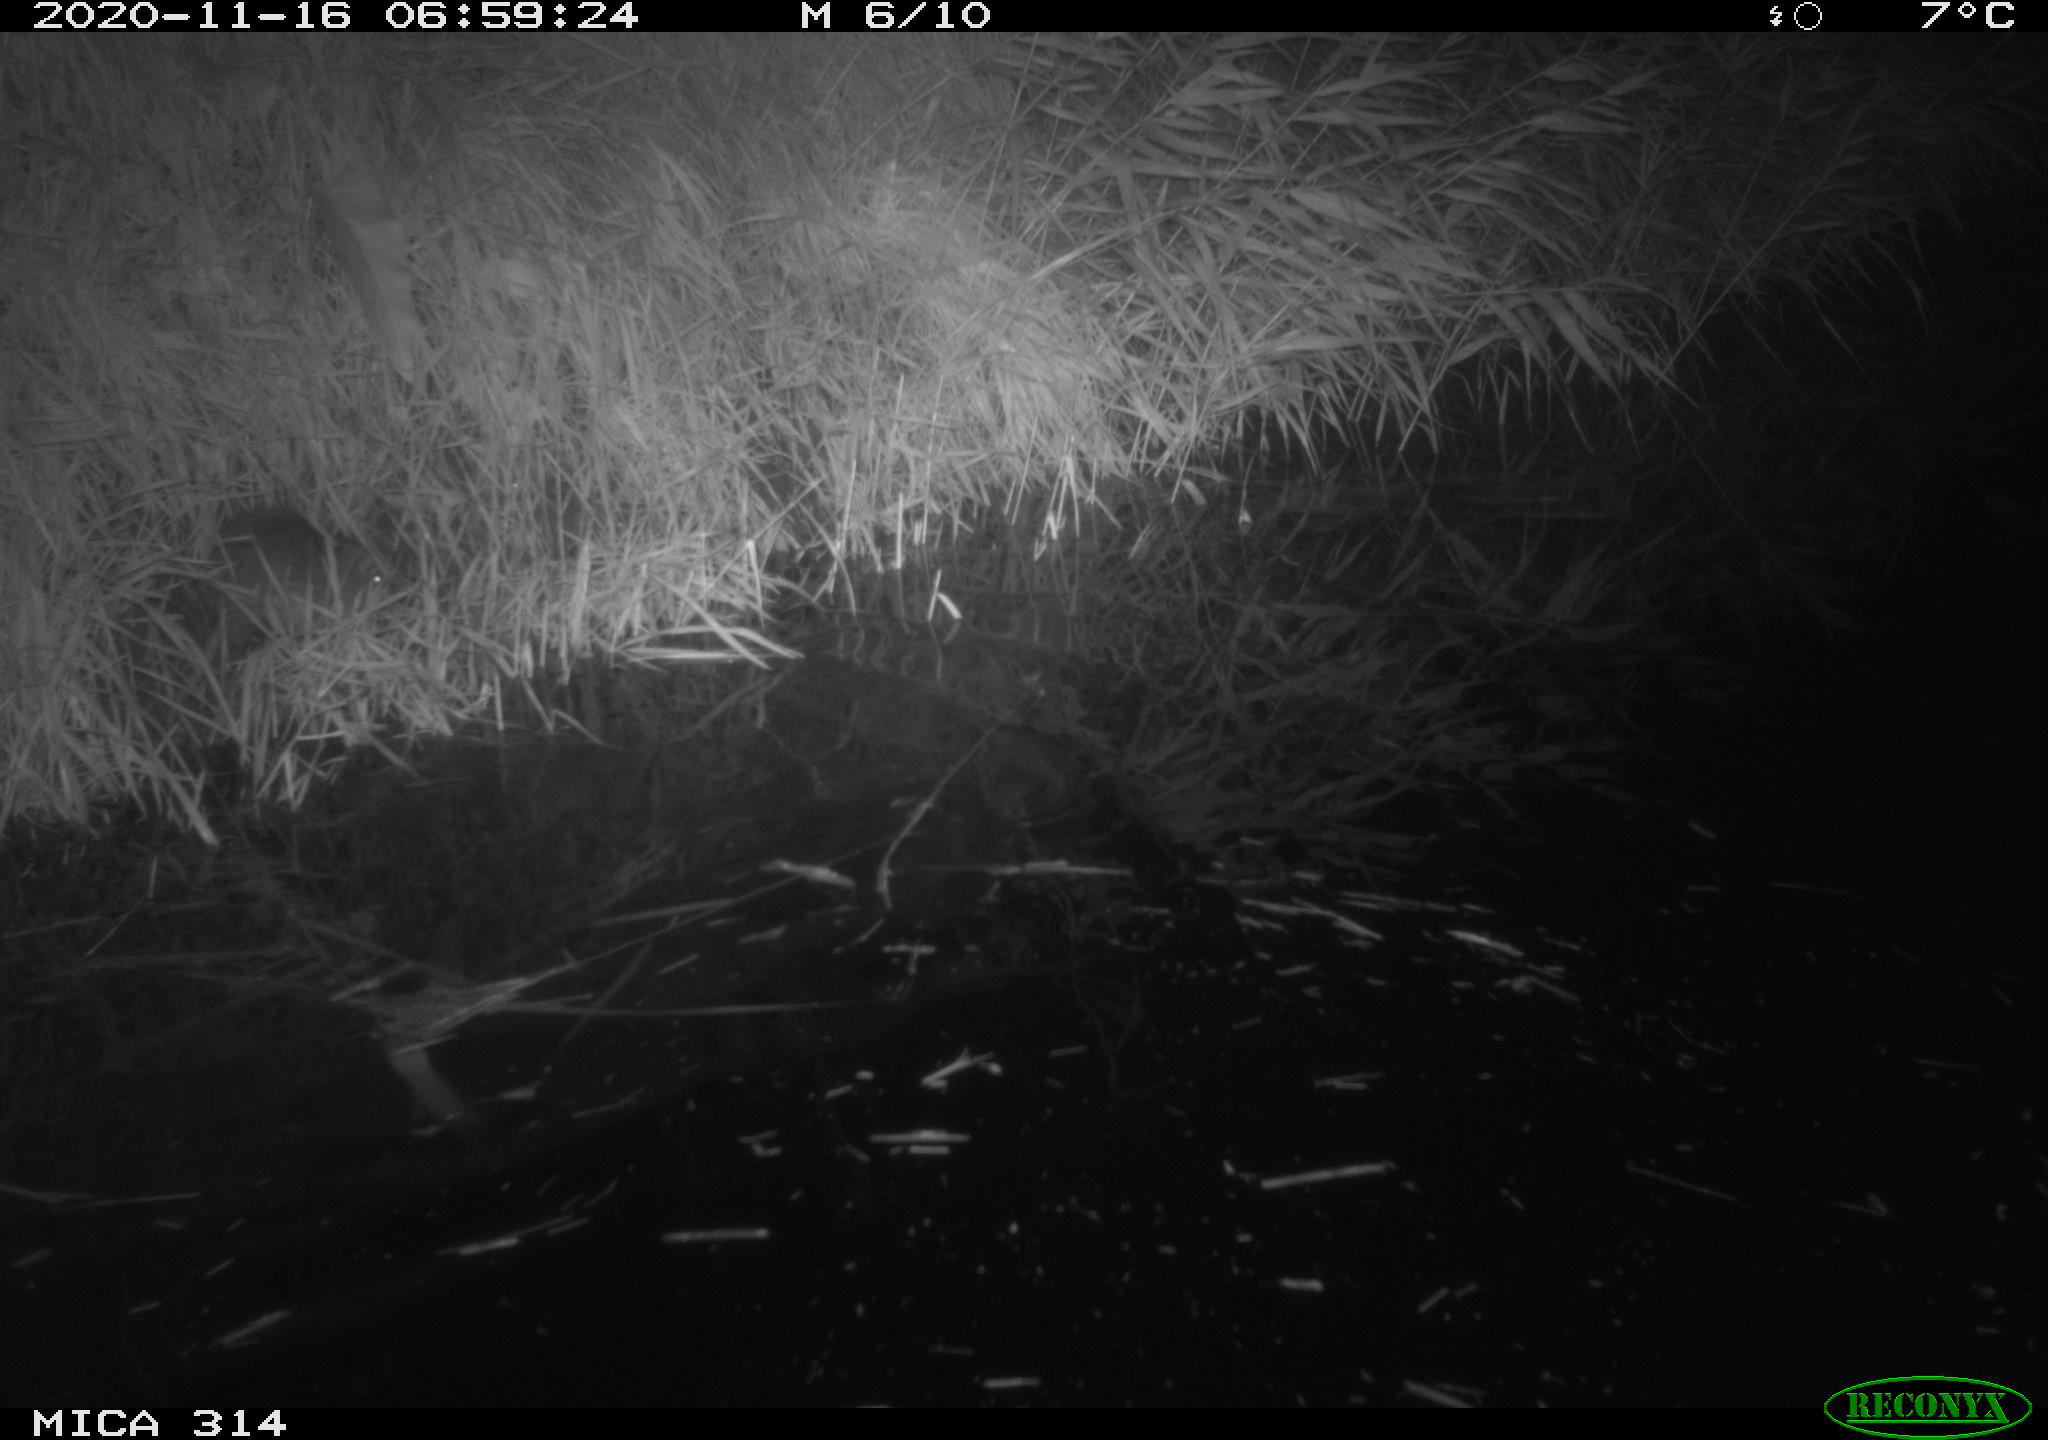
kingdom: Animalia
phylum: Chordata
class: Mammalia
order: Rodentia
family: Muridae
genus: Rattus
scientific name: Rattus norvegicus
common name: Brown rat
